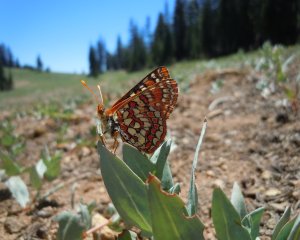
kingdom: Animalia
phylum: Arthropoda
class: Insecta
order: Lepidoptera
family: Nymphalidae
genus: Occidryas
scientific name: Occidryas editha
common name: Edith's Checkerspot
